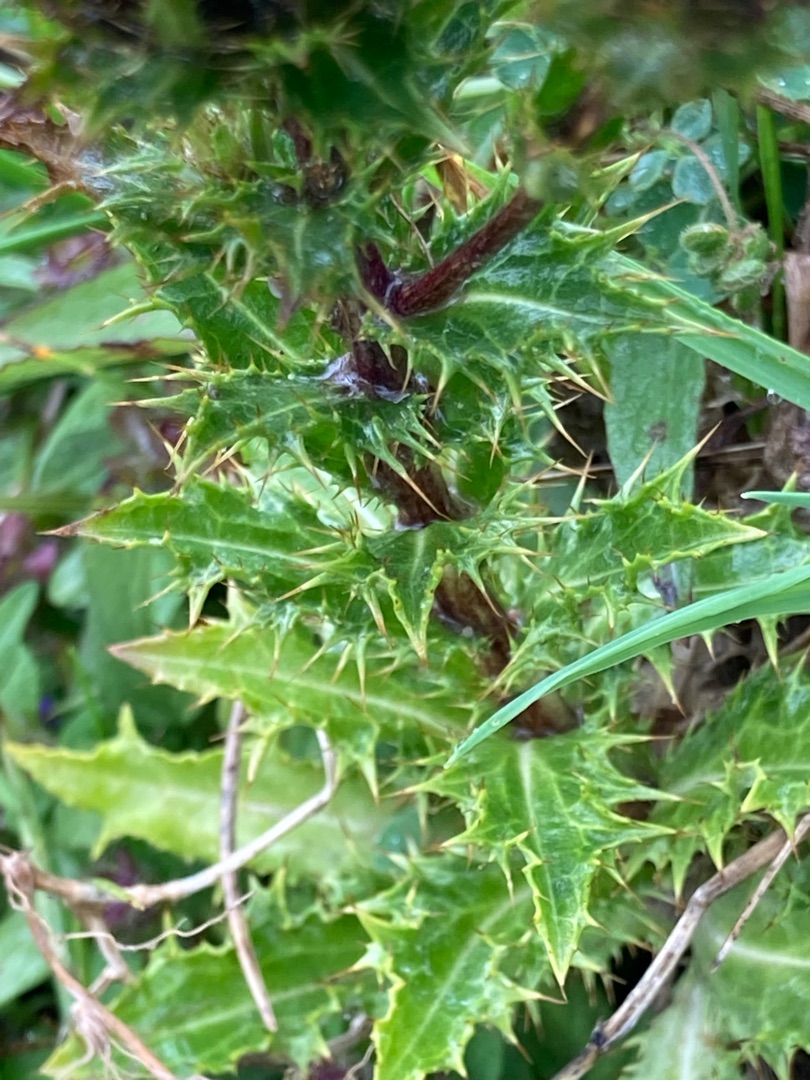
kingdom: Plantae
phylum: Tracheophyta
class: Magnoliopsida
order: Asterales
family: Asteraceae
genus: Carlina
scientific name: Carlina vulgaris
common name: Bakketidsel
